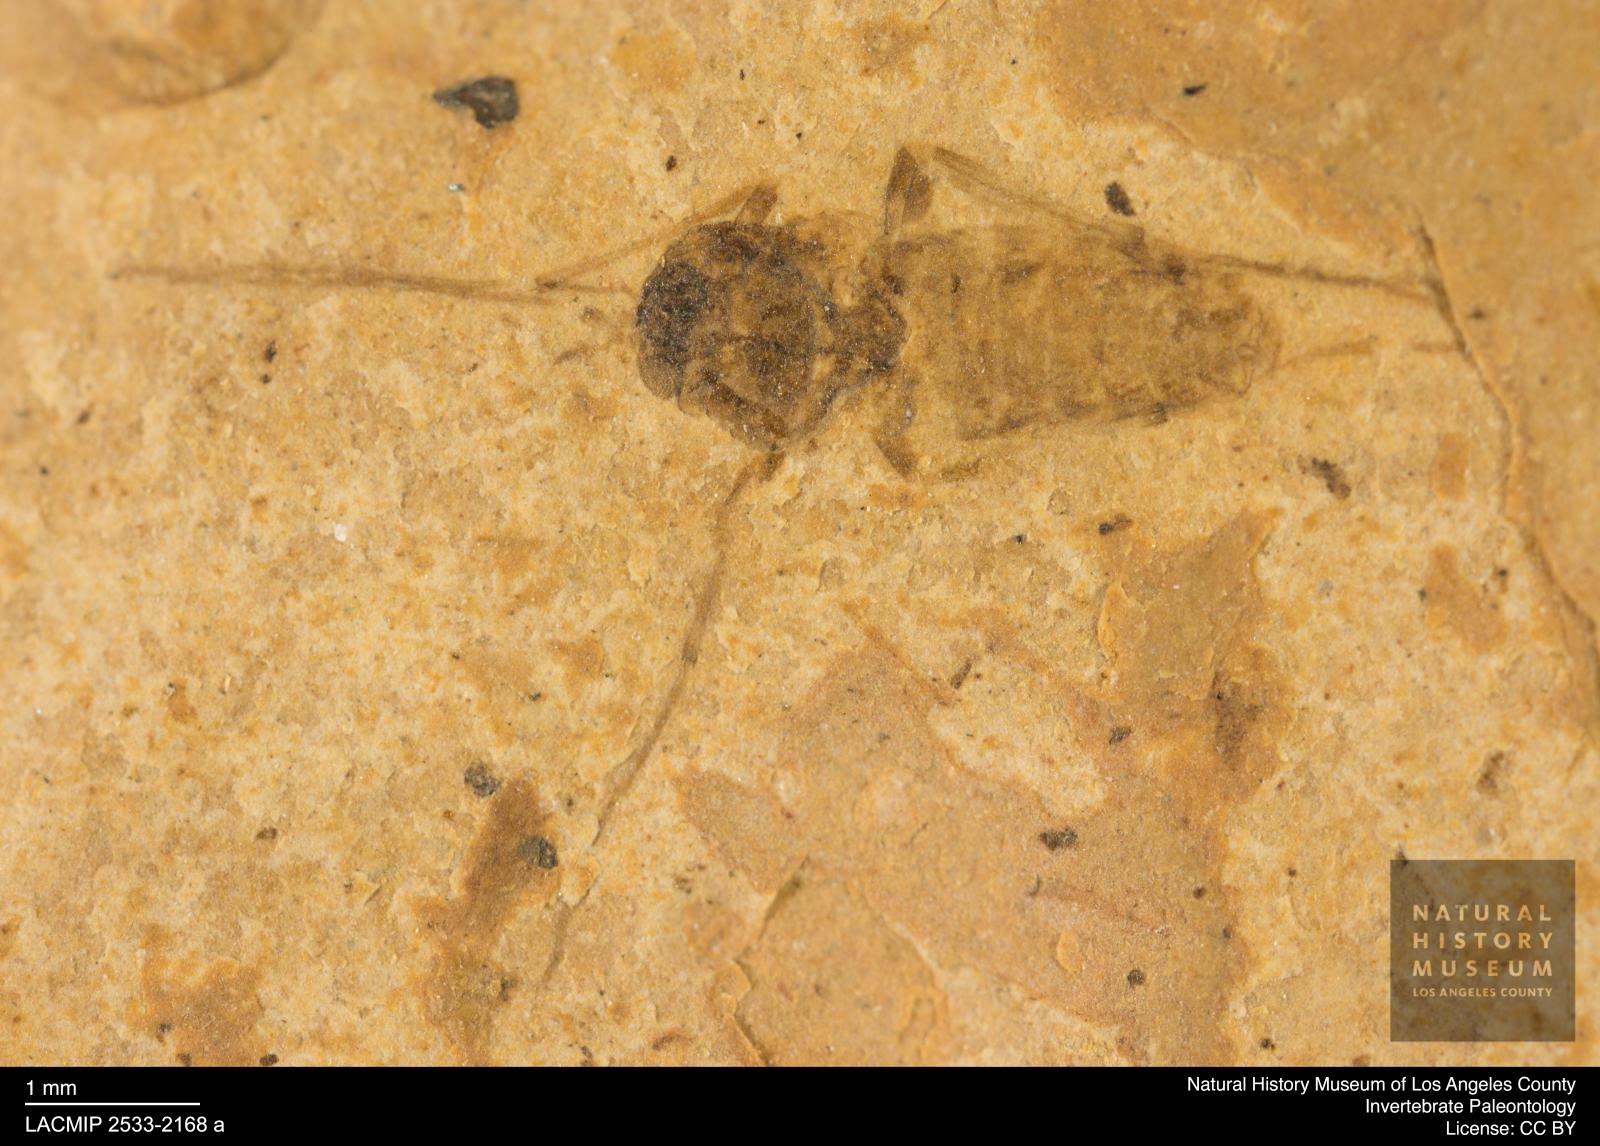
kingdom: Animalia
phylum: Arthropoda
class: Insecta
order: Diptera
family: Chironomidae
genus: Tanypus
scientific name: Tanypus dorminans
